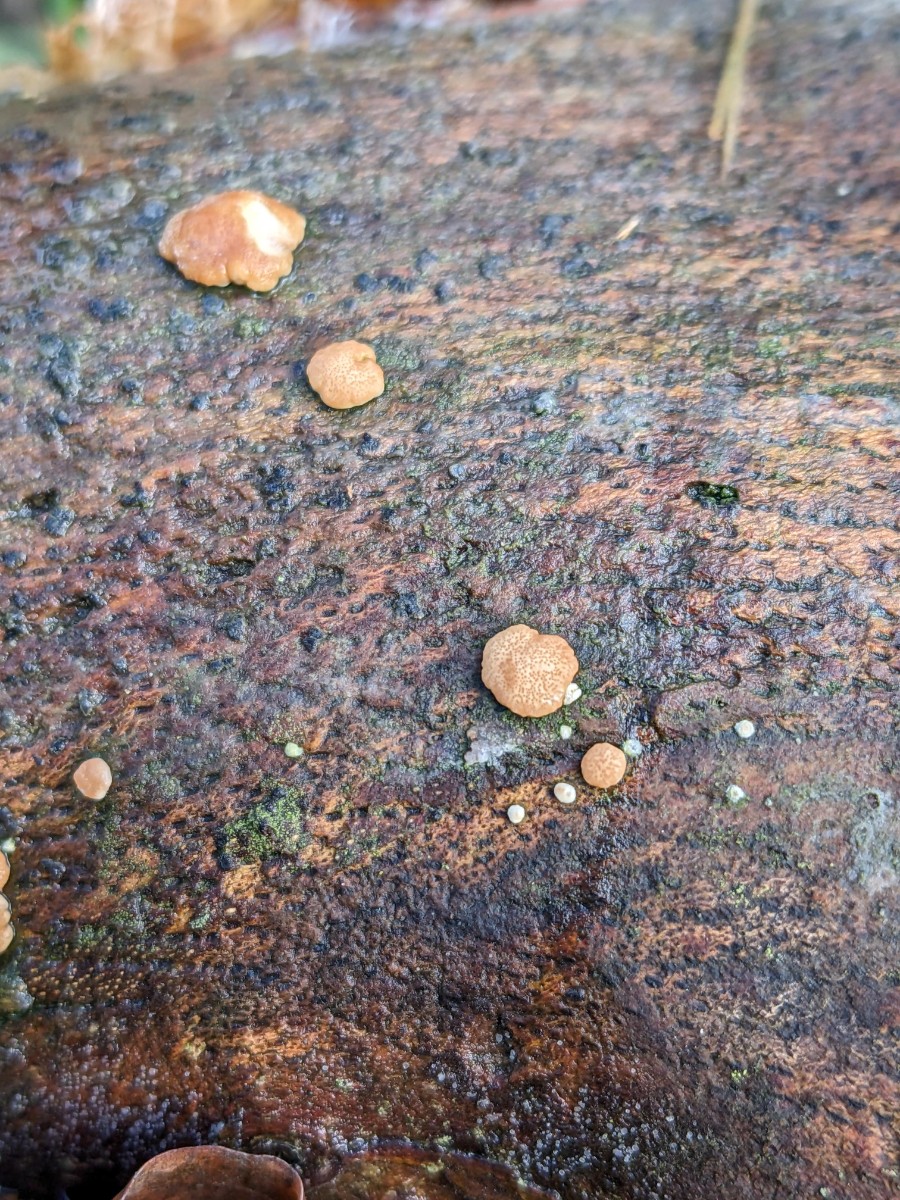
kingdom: Fungi
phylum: Ascomycota
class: Sordariomycetes
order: Hypocreales
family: Hypocreaceae
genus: Trichoderma
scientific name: Trichoderma europaeum
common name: rosabrun kødkerne
